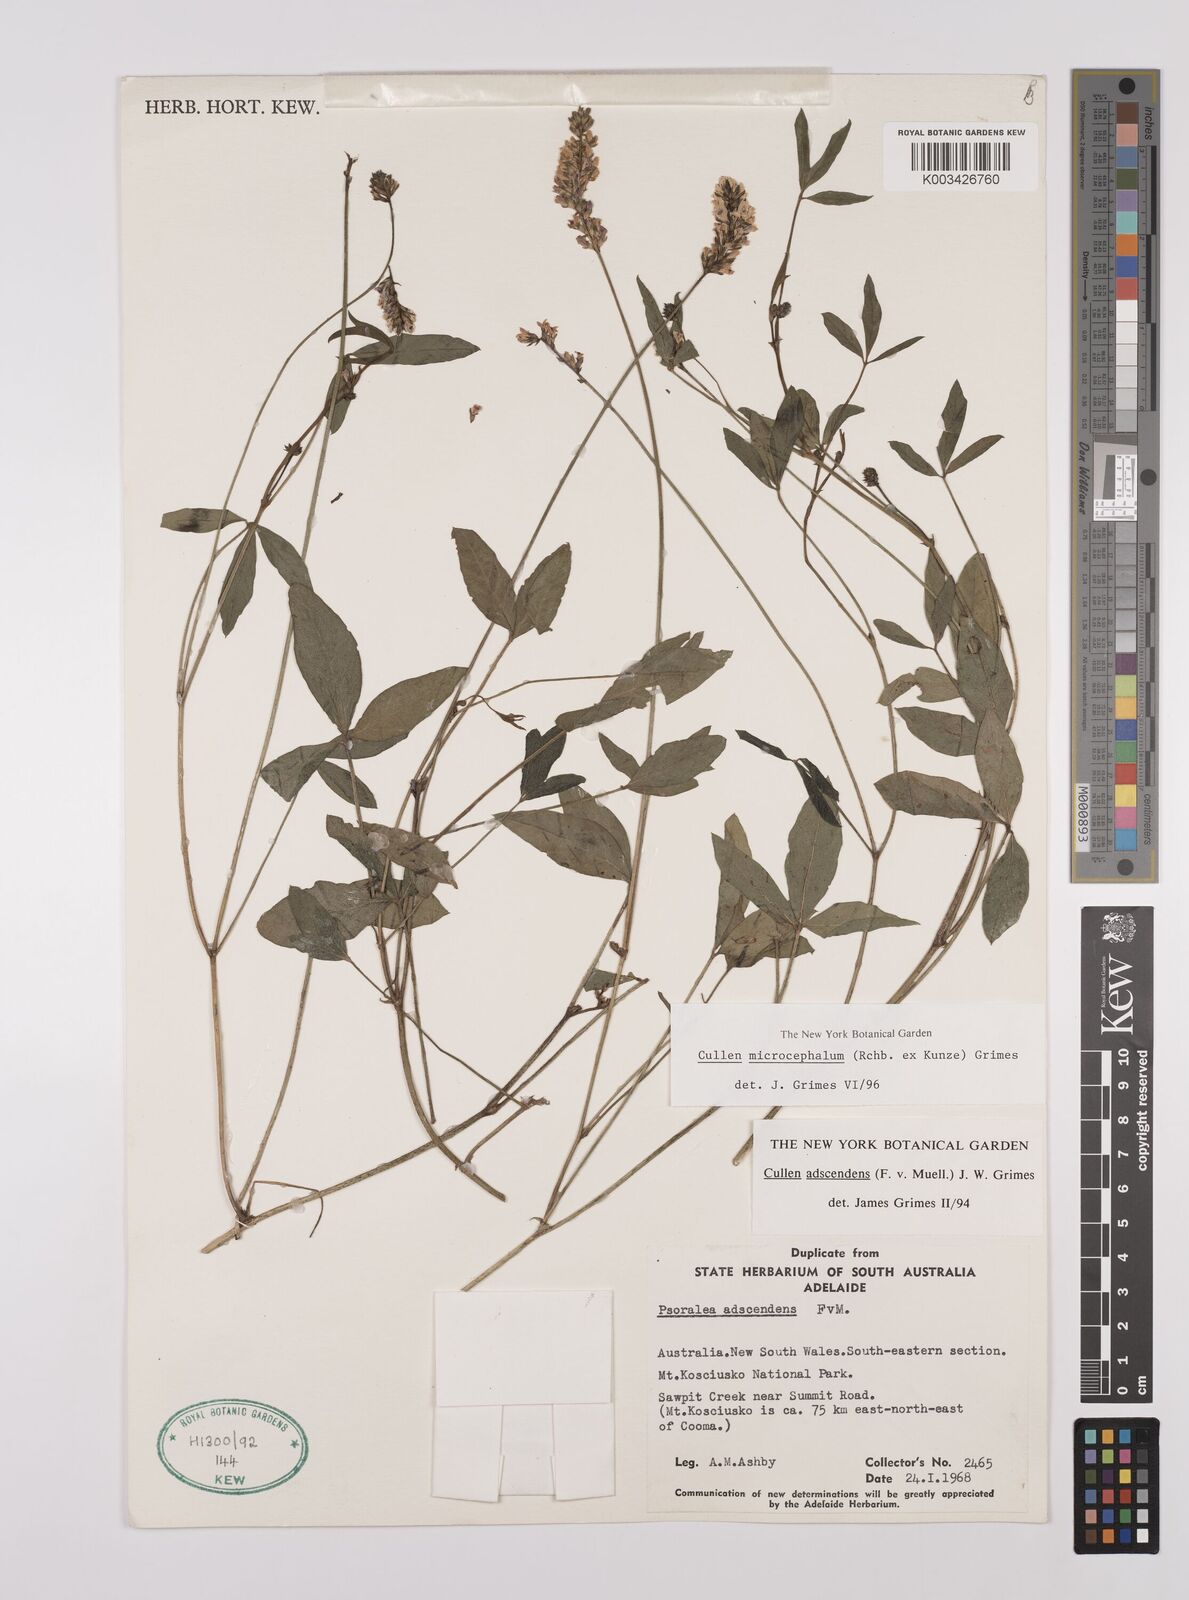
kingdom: Plantae
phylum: Tracheophyta
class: Magnoliopsida
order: Fabales
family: Fabaceae
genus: Cullen
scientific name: Cullen microcephalum
